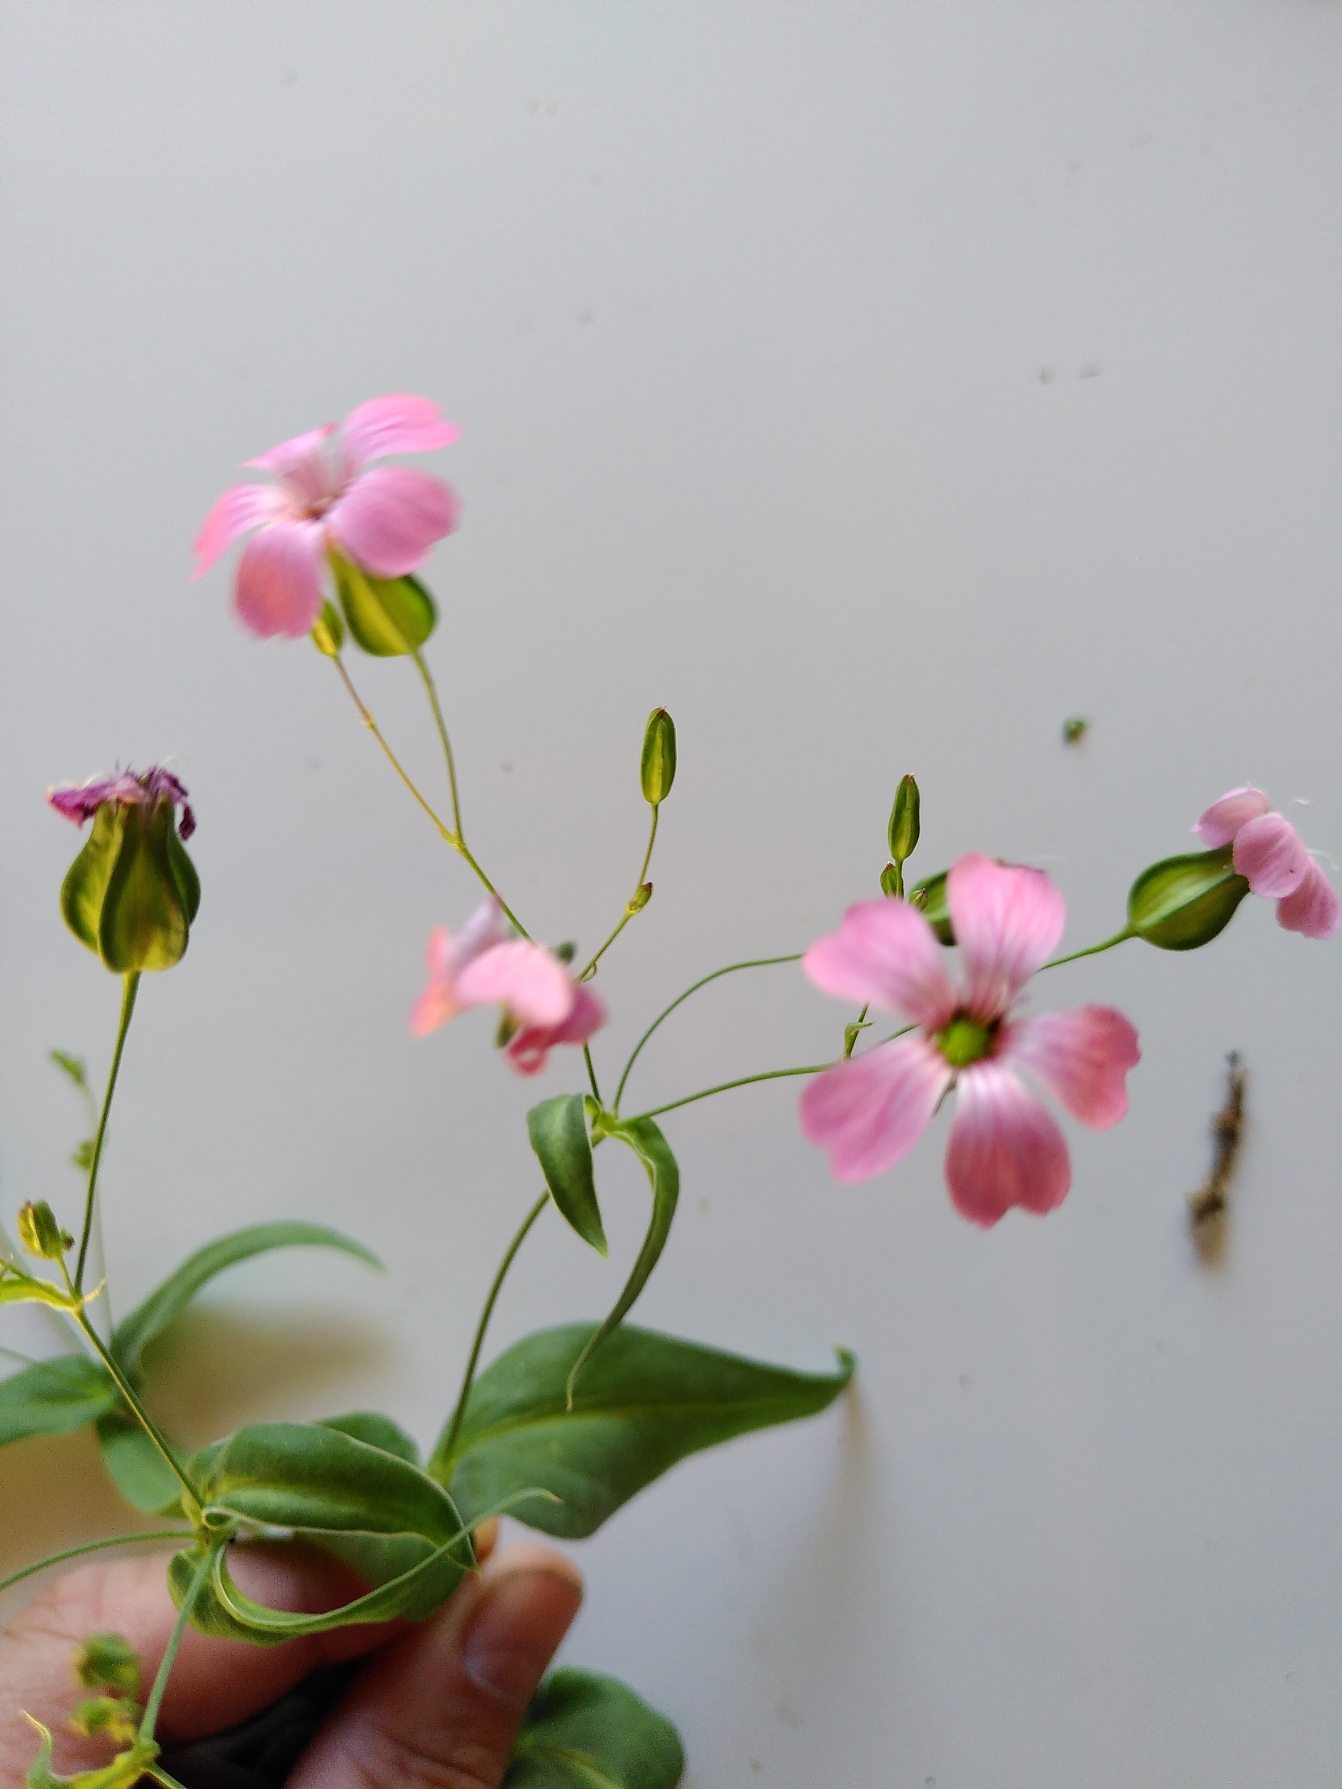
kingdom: Plantae
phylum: Tracheophyta
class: Magnoliopsida
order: Caryophyllales
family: Caryophyllaceae
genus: Gypsophila
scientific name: Gypsophila vaccaria
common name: Konellike
